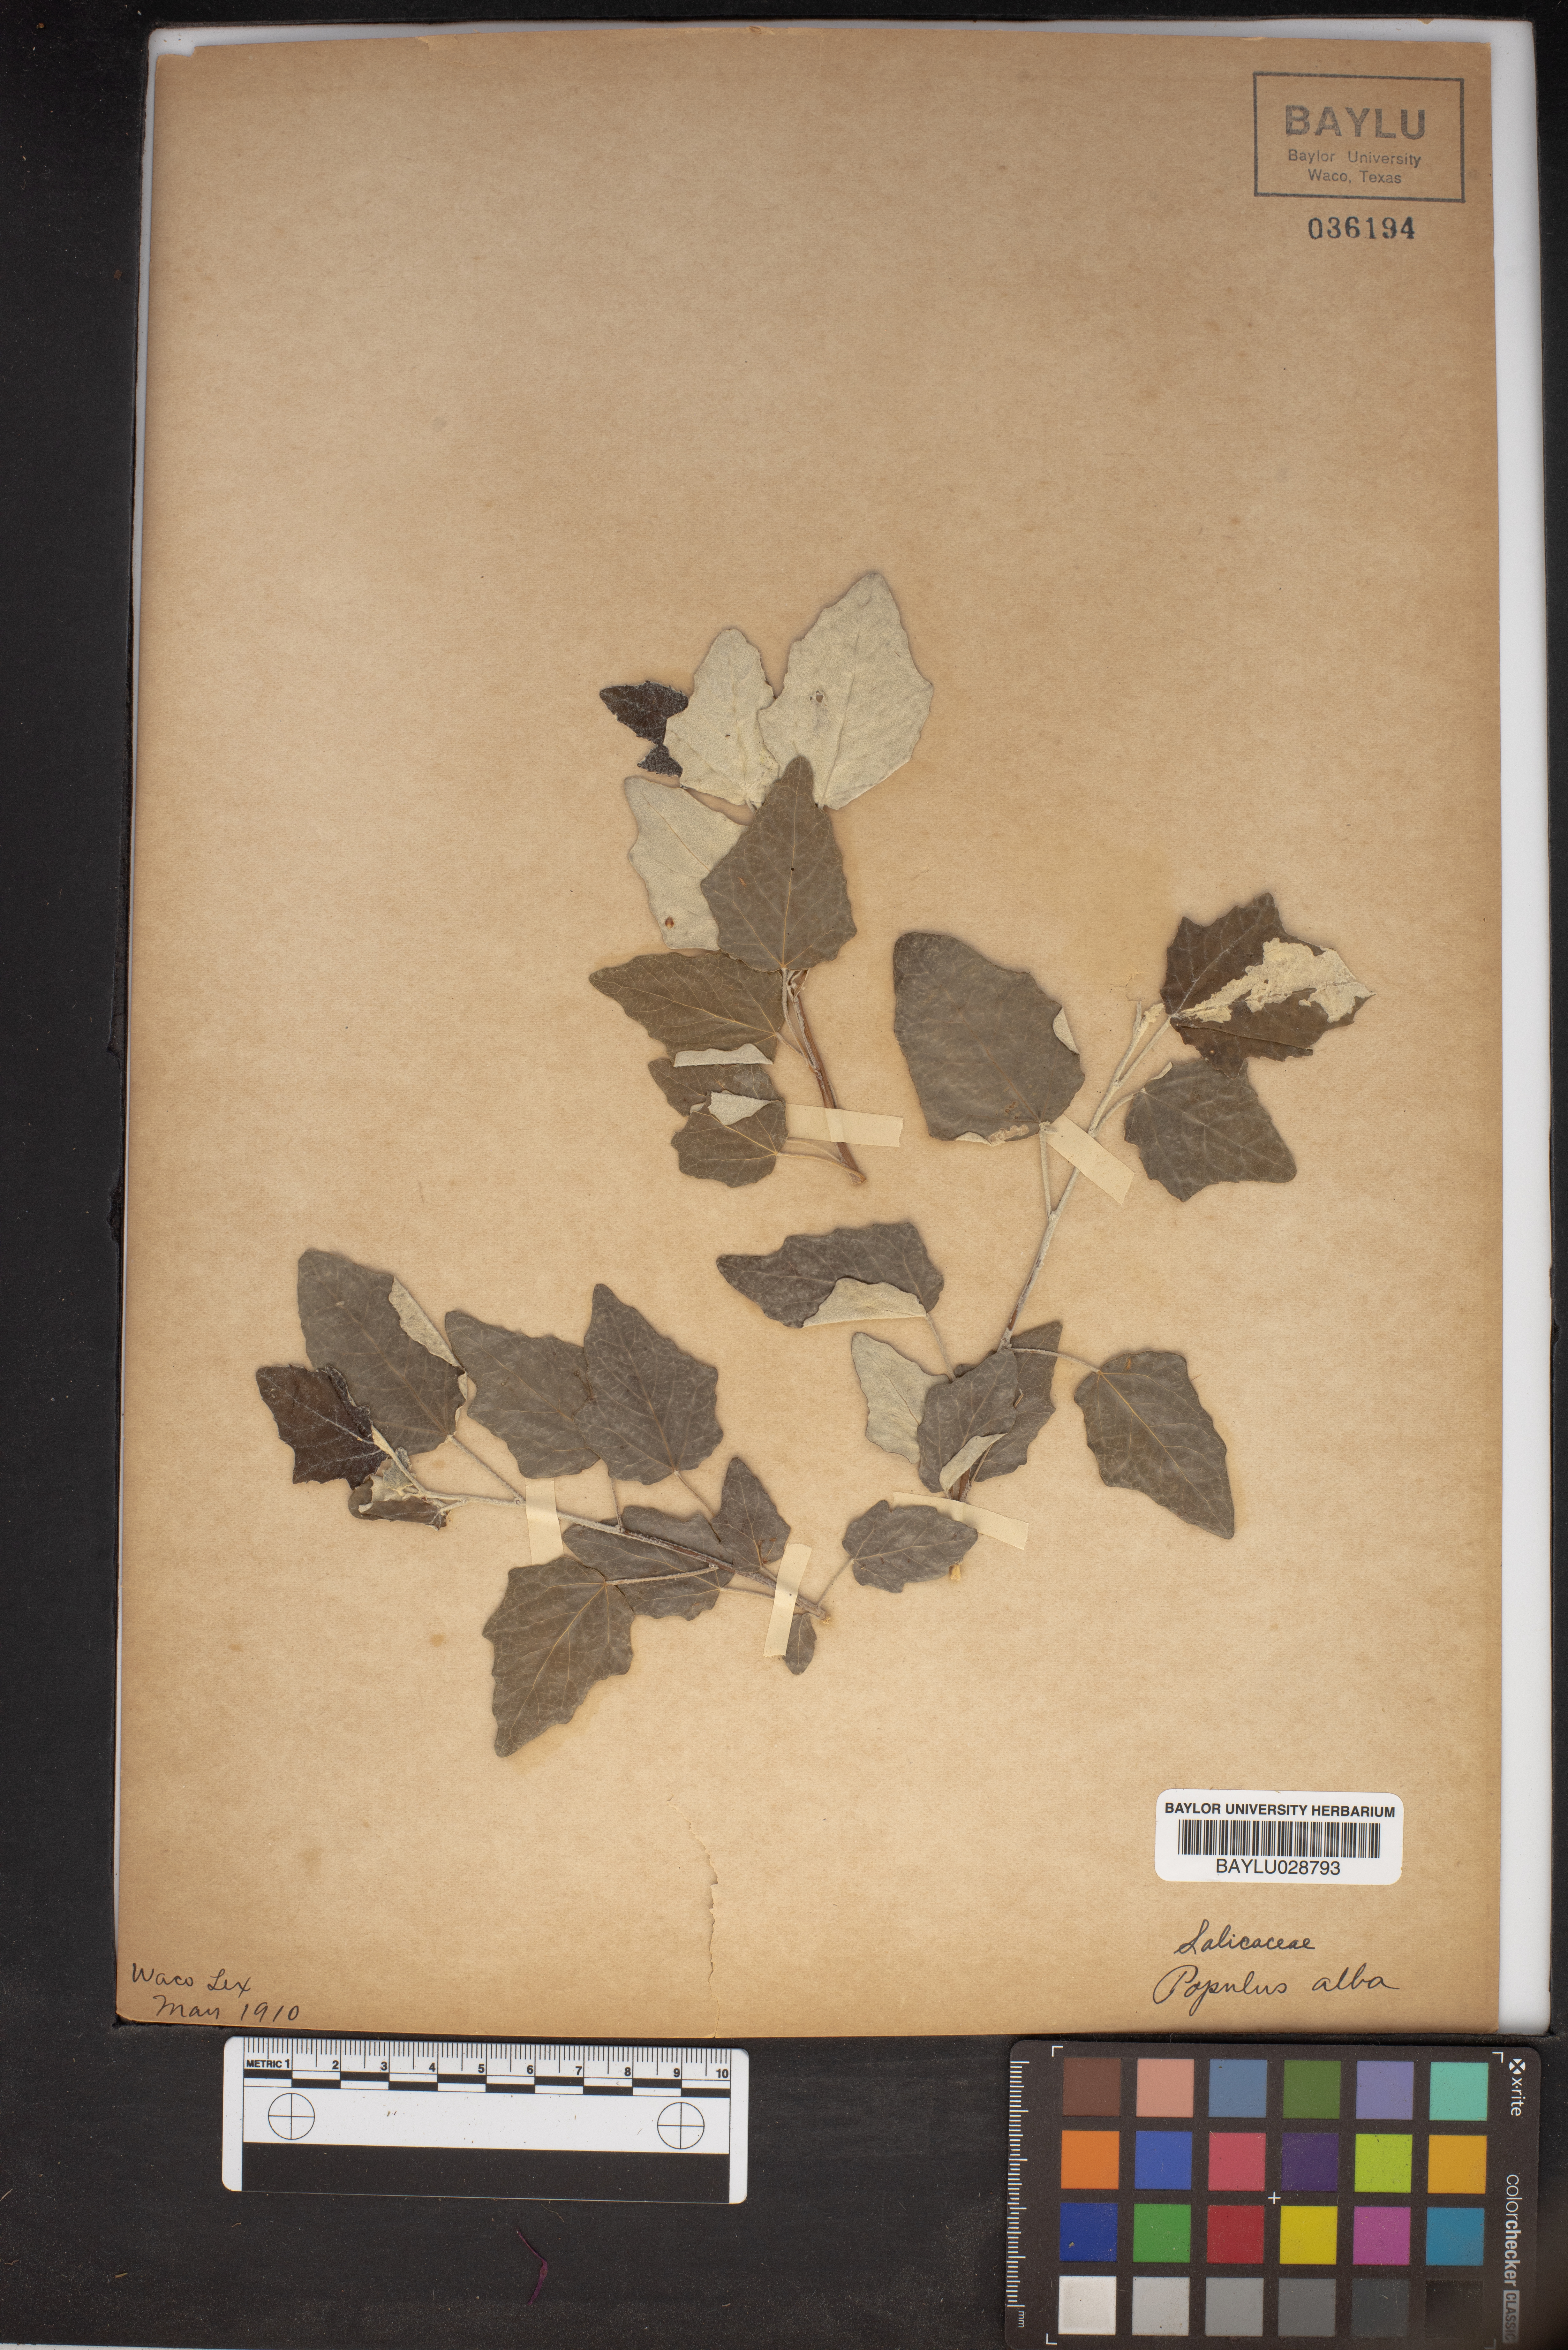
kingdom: Plantae
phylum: Tracheophyta
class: Magnoliopsida
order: Malpighiales
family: Salicaceae
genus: Populus
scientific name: Populus alba
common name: White poplar
